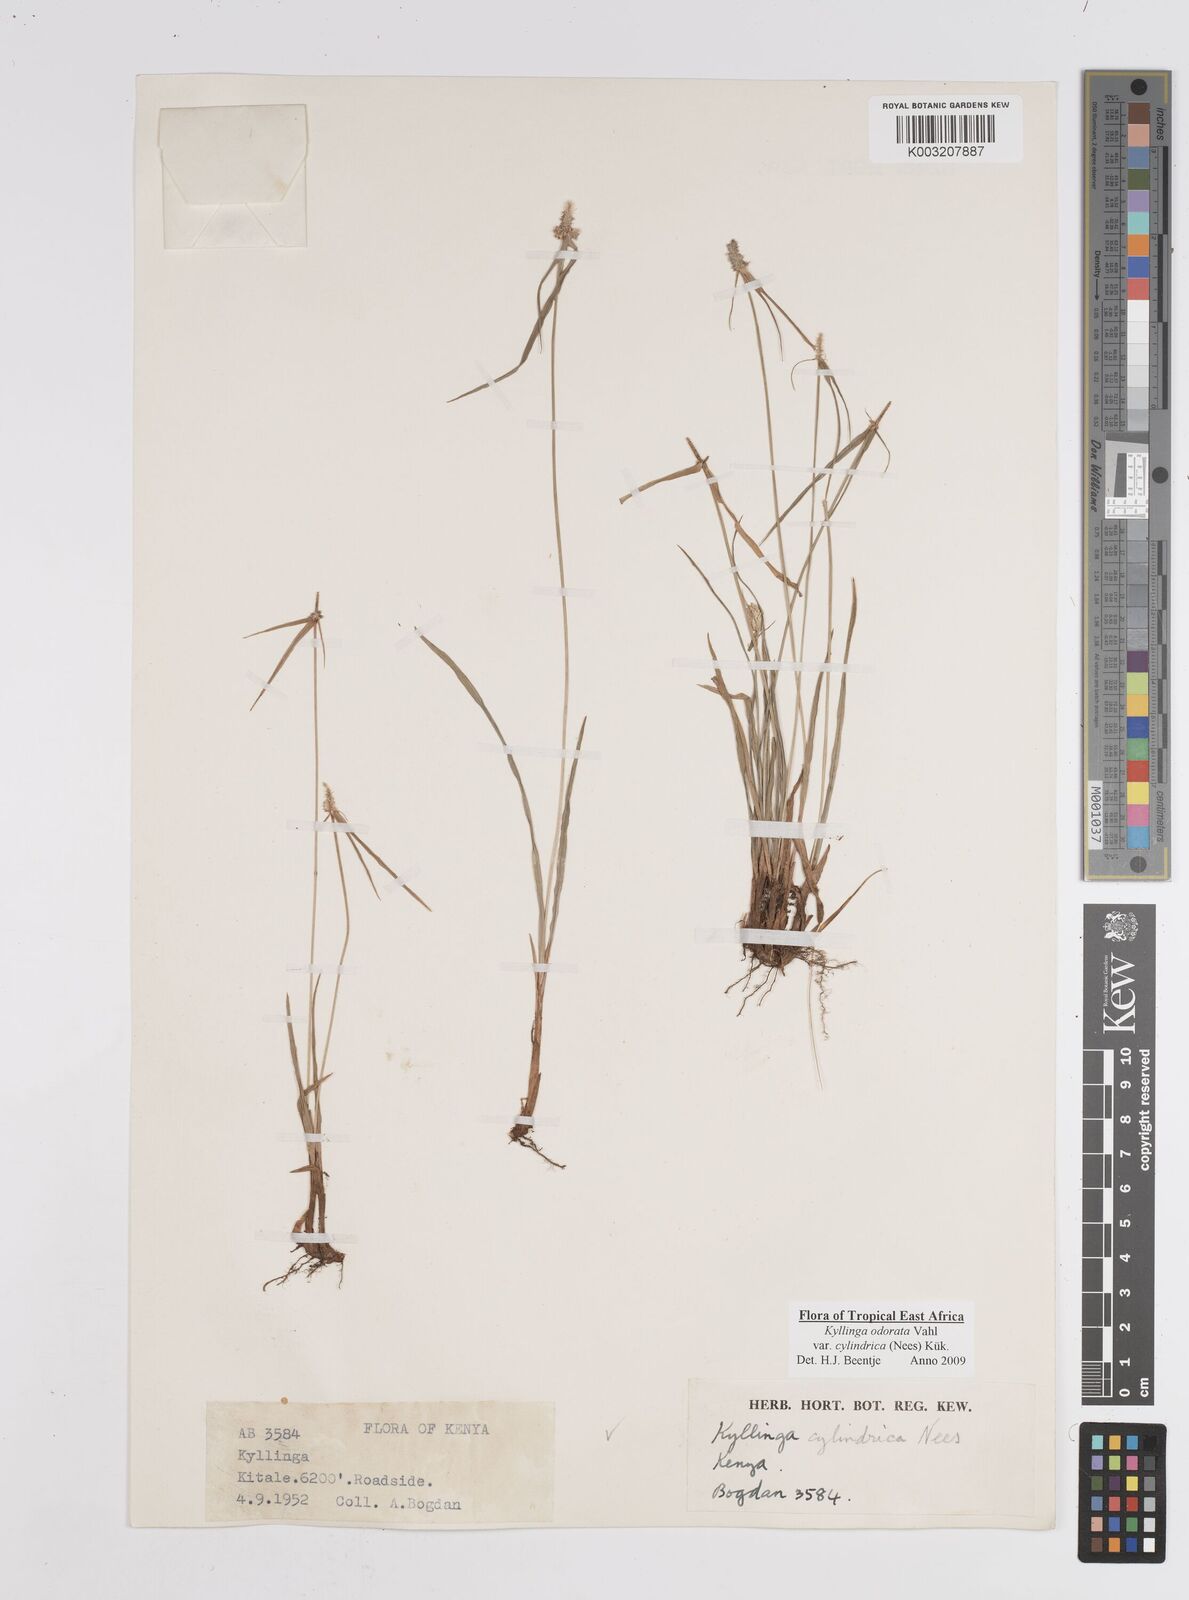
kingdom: Plantae
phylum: Tracheophyta
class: Liliopsida
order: Poales
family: Cyperaceae
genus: Cyperus
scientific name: Cyperus
